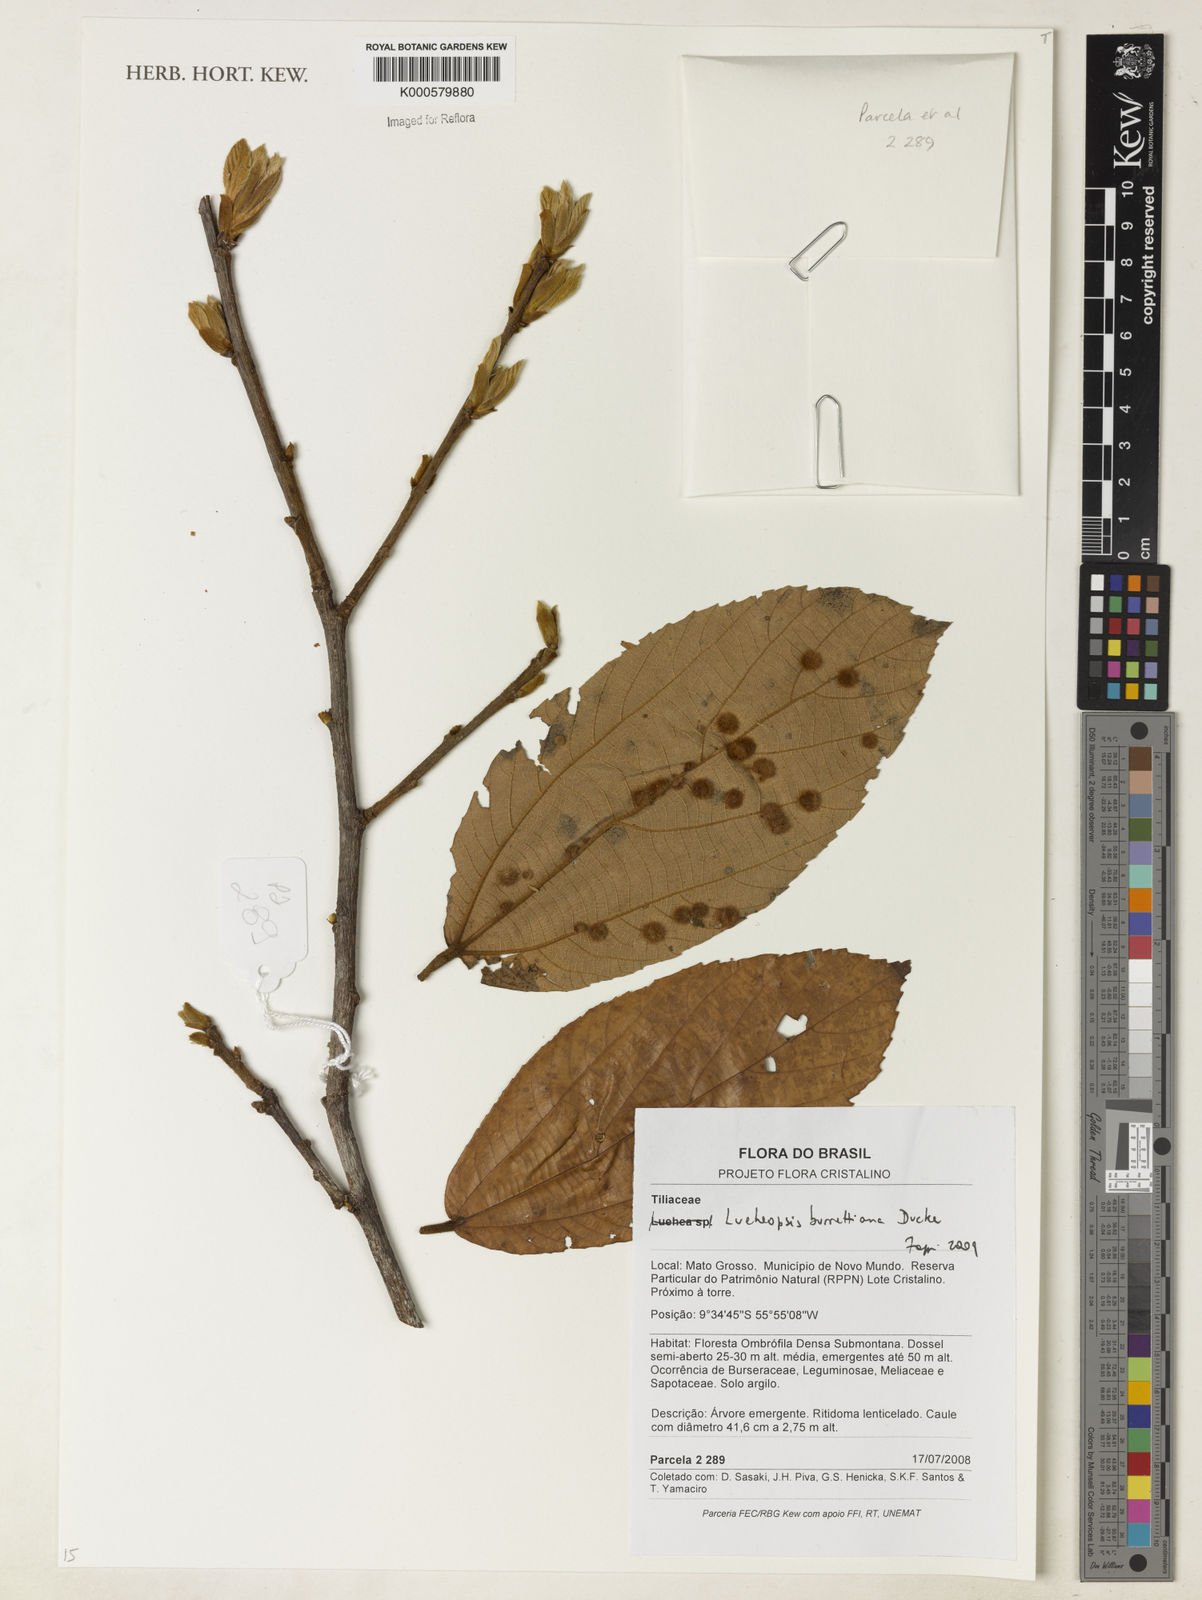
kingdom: Plantae
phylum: Tracheophyta
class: Magnoliopsida
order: Malvales
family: Malvaceae
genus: Lueheopsis
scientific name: Lueheopsis burretiana
